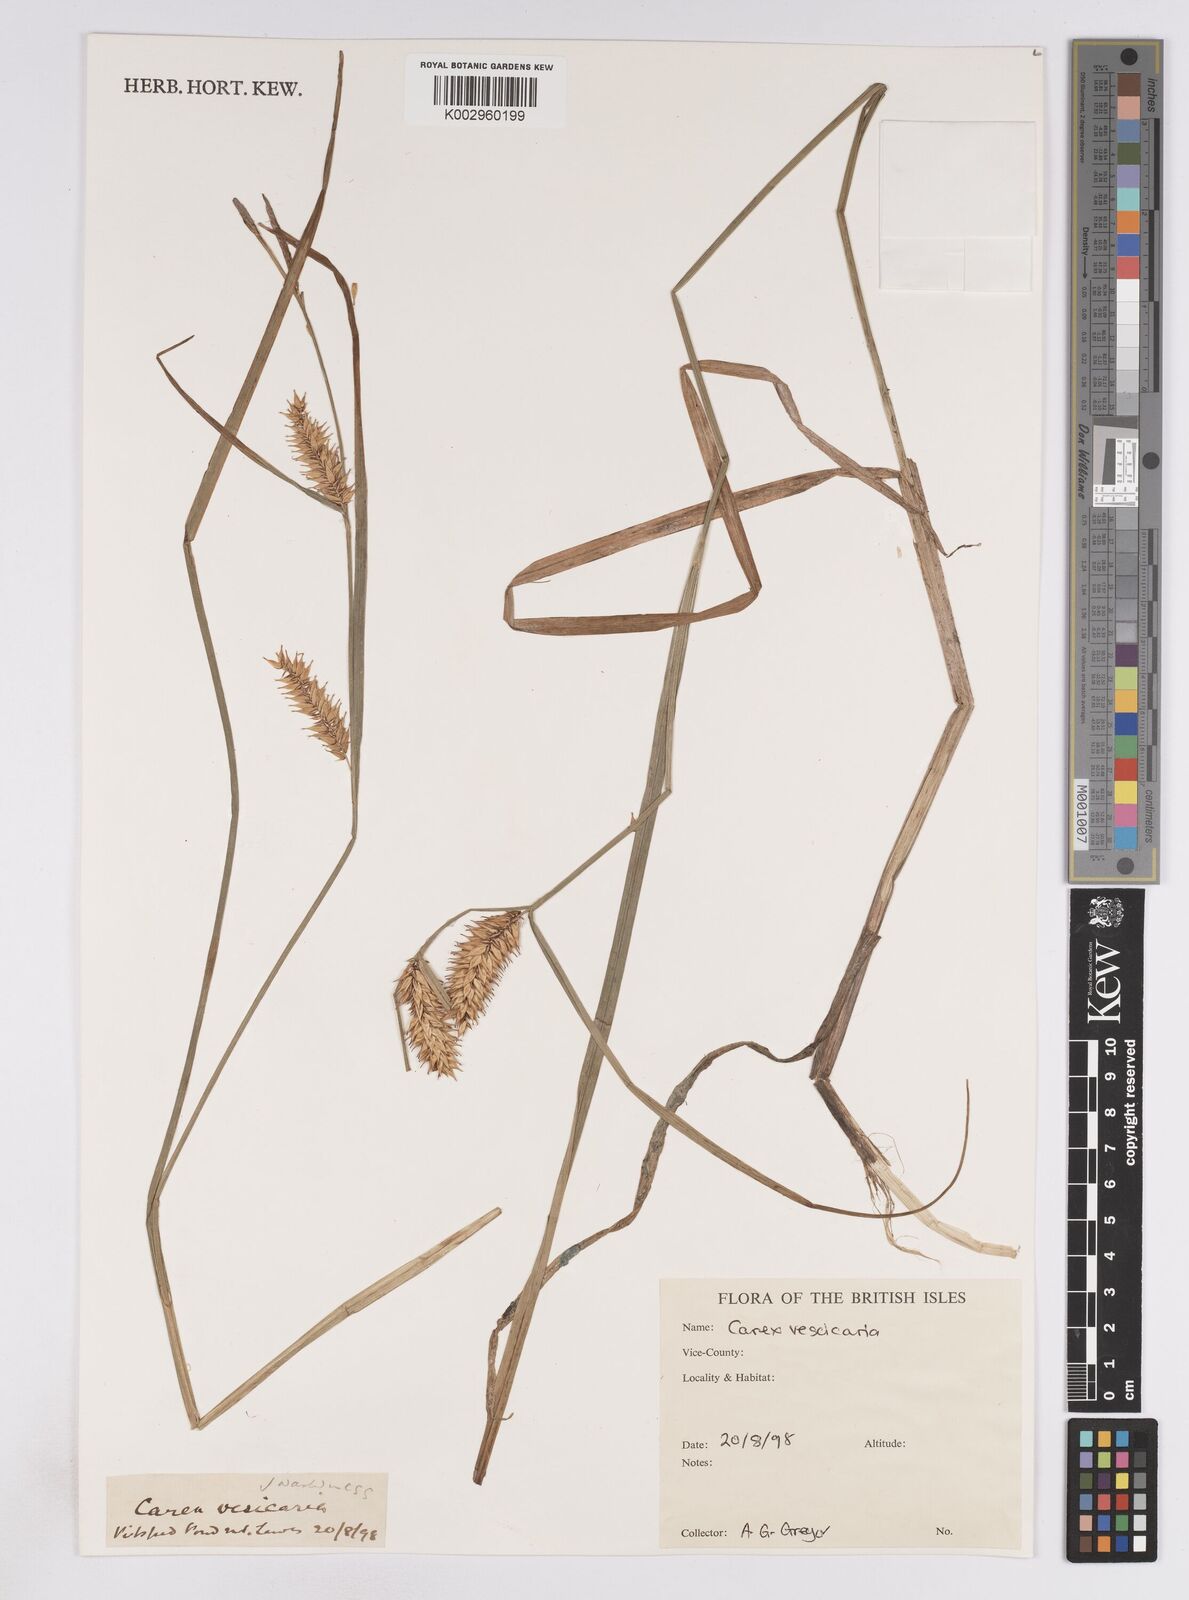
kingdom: Plantae
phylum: Tracheophyta
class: Liliopsida
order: Poales
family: Cyperaceae
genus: Carex
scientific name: Carex vesicaria
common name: Bladder-sedge
